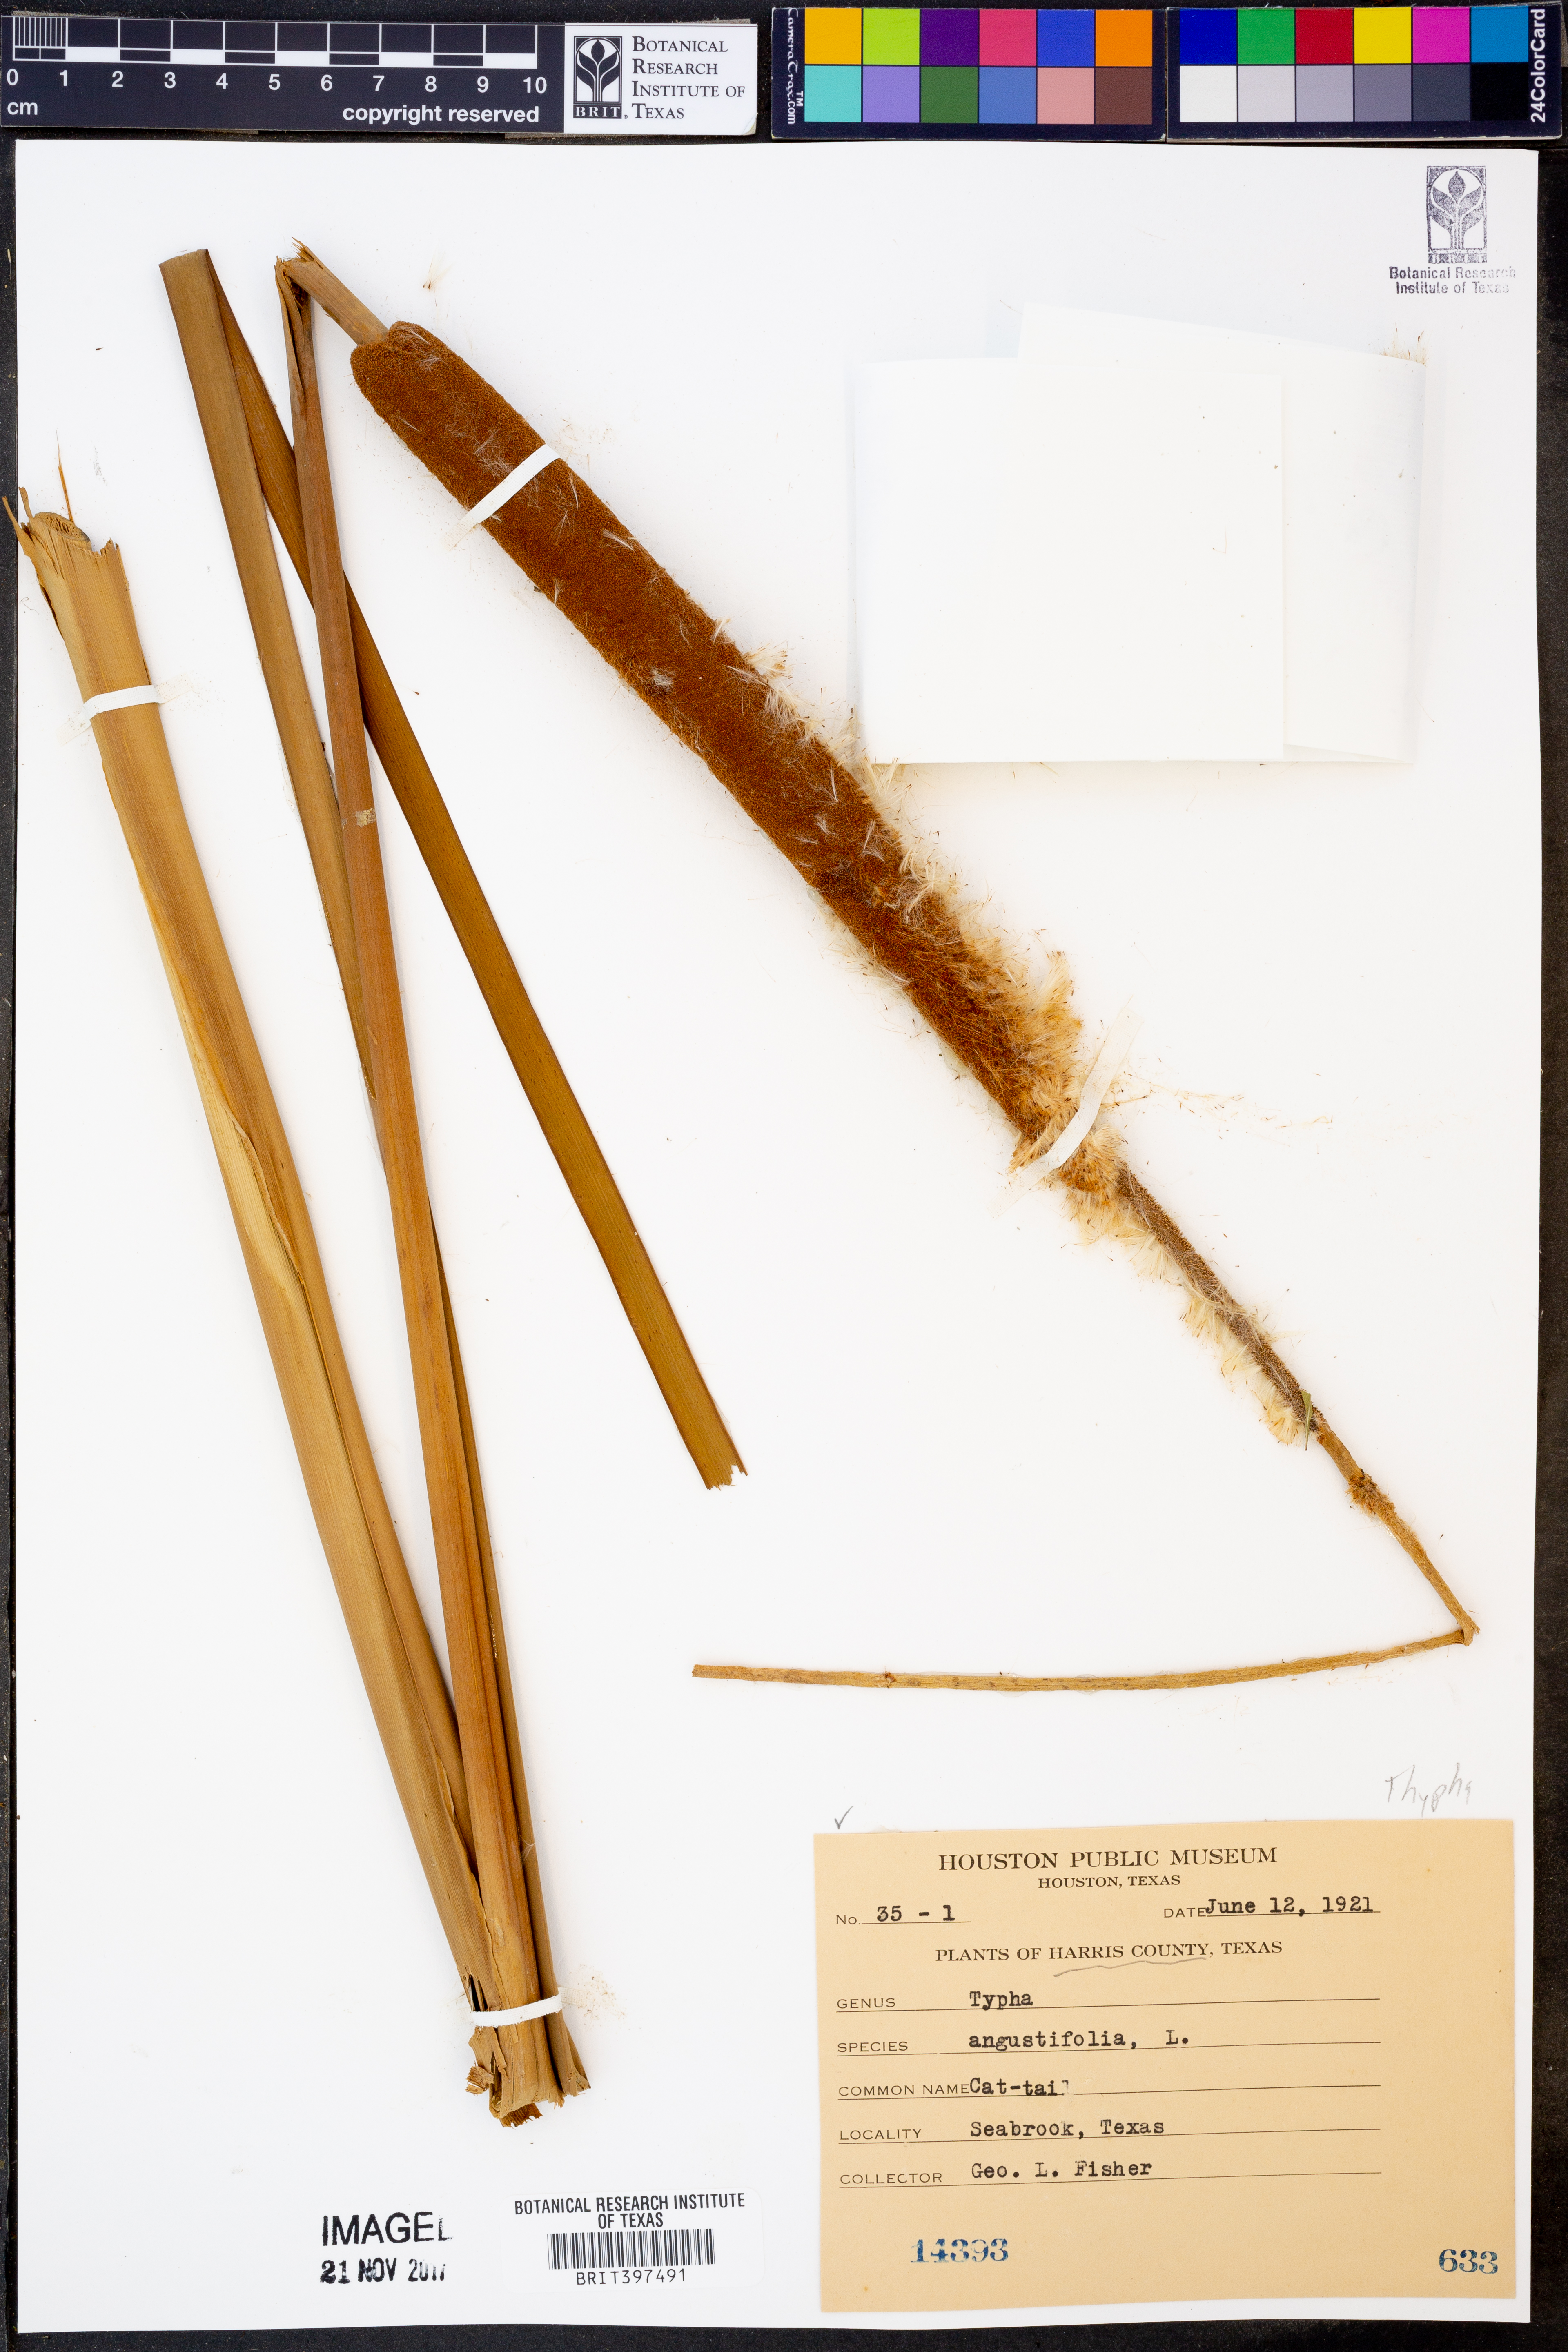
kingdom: Plantae
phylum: Tracheophyta
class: Liliopsida
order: Poales
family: Typhaceae
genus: Typha
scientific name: Typha angustifolia
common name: Lesser bulrush
